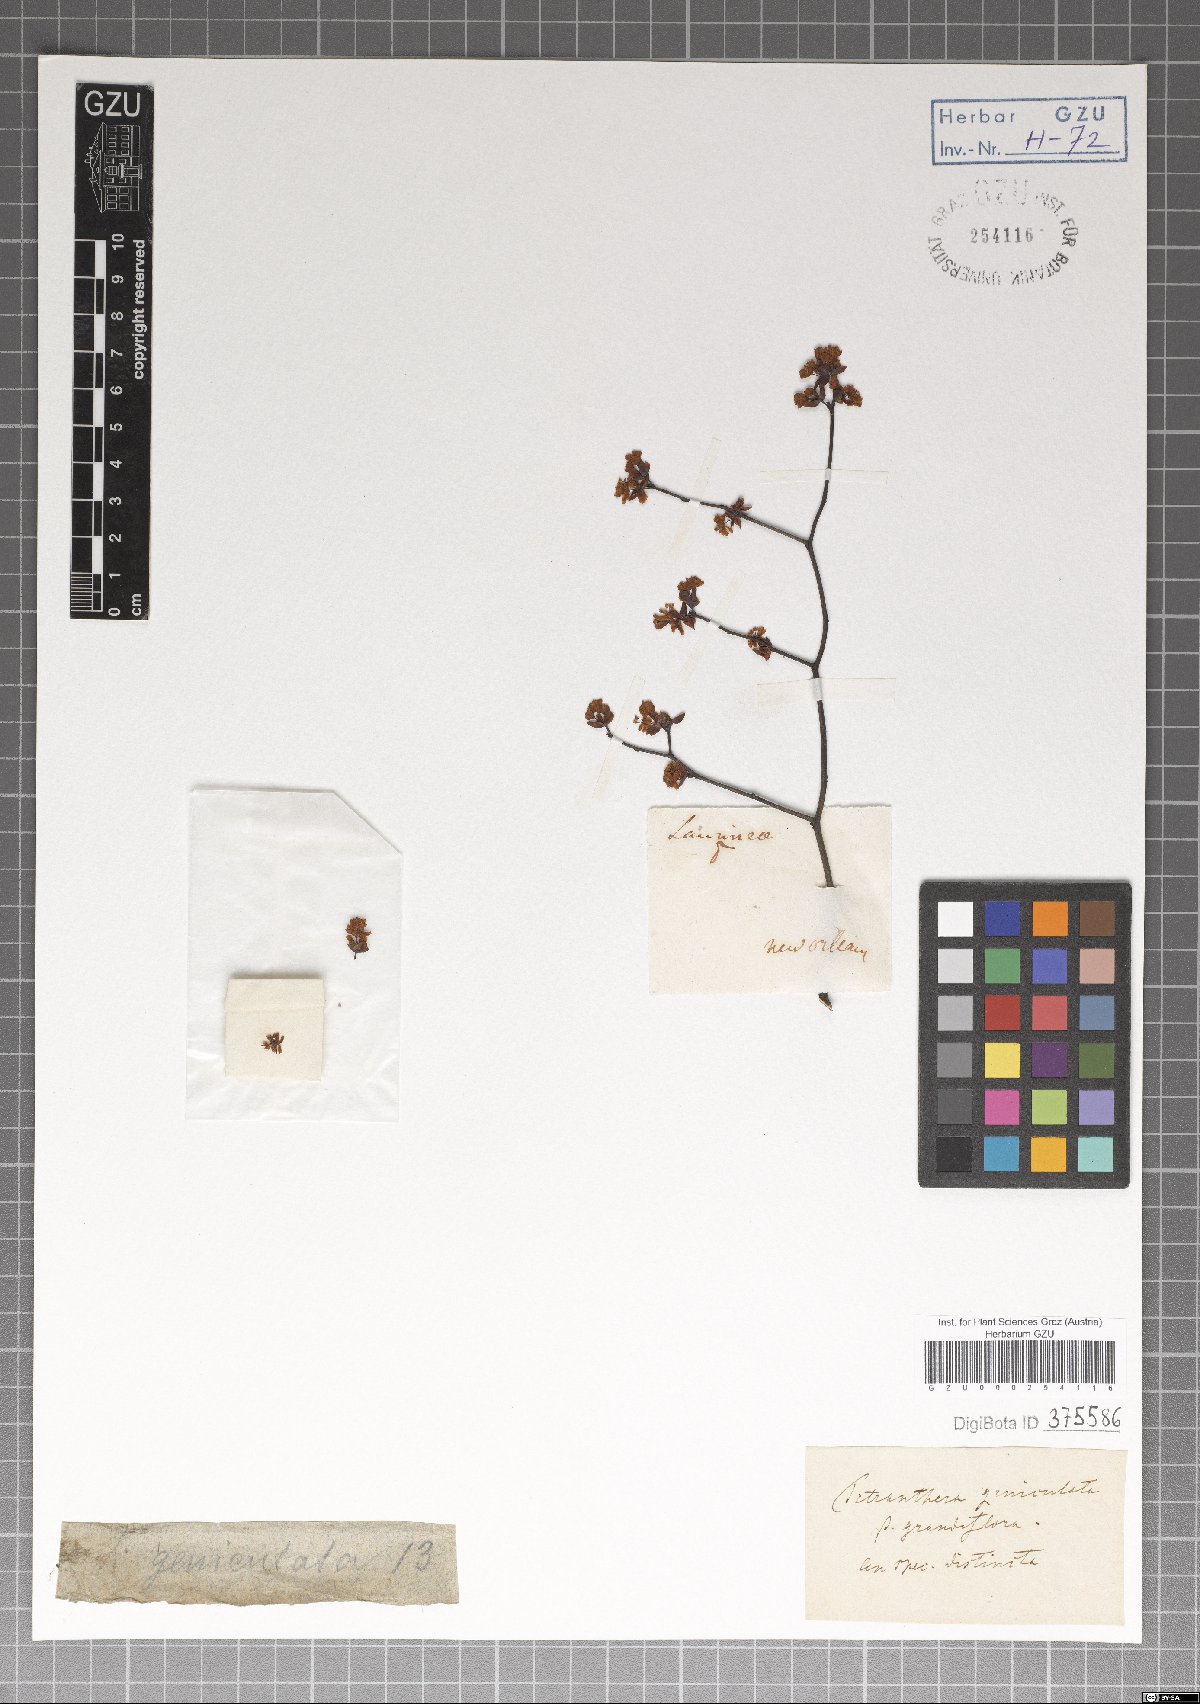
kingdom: Plantae
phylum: Tracheophyta
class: Magnoliopsida
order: Laurales
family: Lauraceae
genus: Litsea
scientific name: Litsea aestivalis
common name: Pondspice
